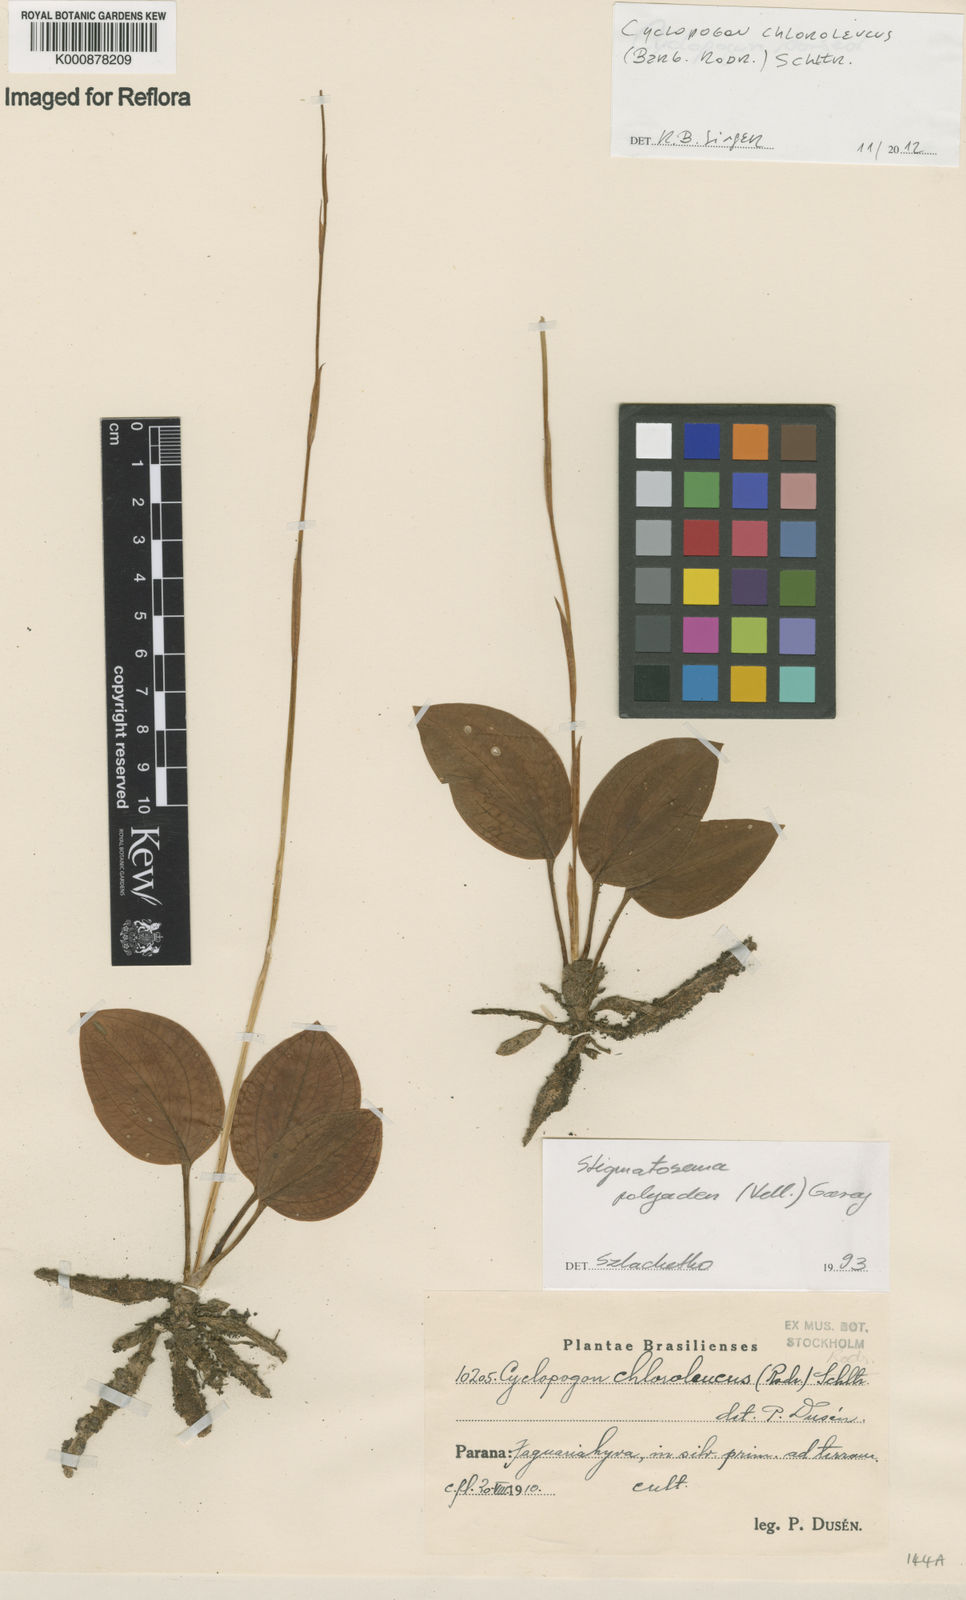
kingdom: Plantae
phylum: Tracheophyta
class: Liliopsida
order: Asparagales
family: Orchidaceae
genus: Cyclopogon
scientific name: Cyclopogon
